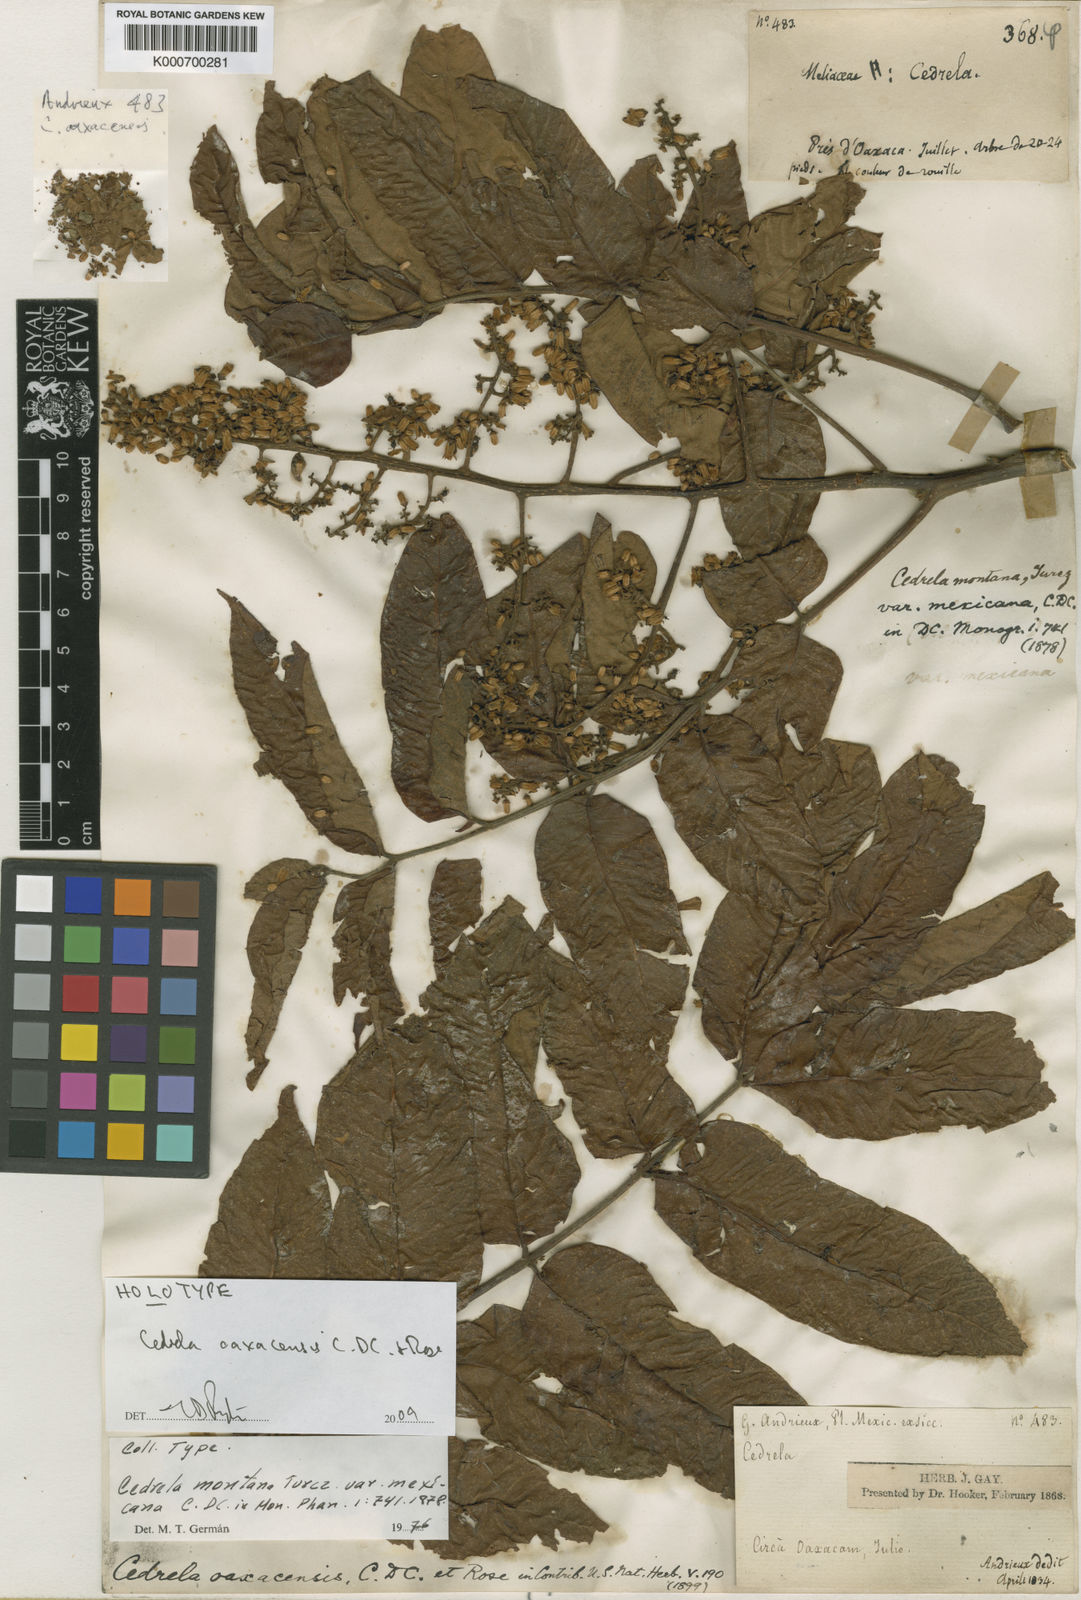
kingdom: Plantae
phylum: Tracheophyta
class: Magnoliopsida
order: Sapindales
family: Meliaceae
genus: Cedrela
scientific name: Cedrela oaxacensis
